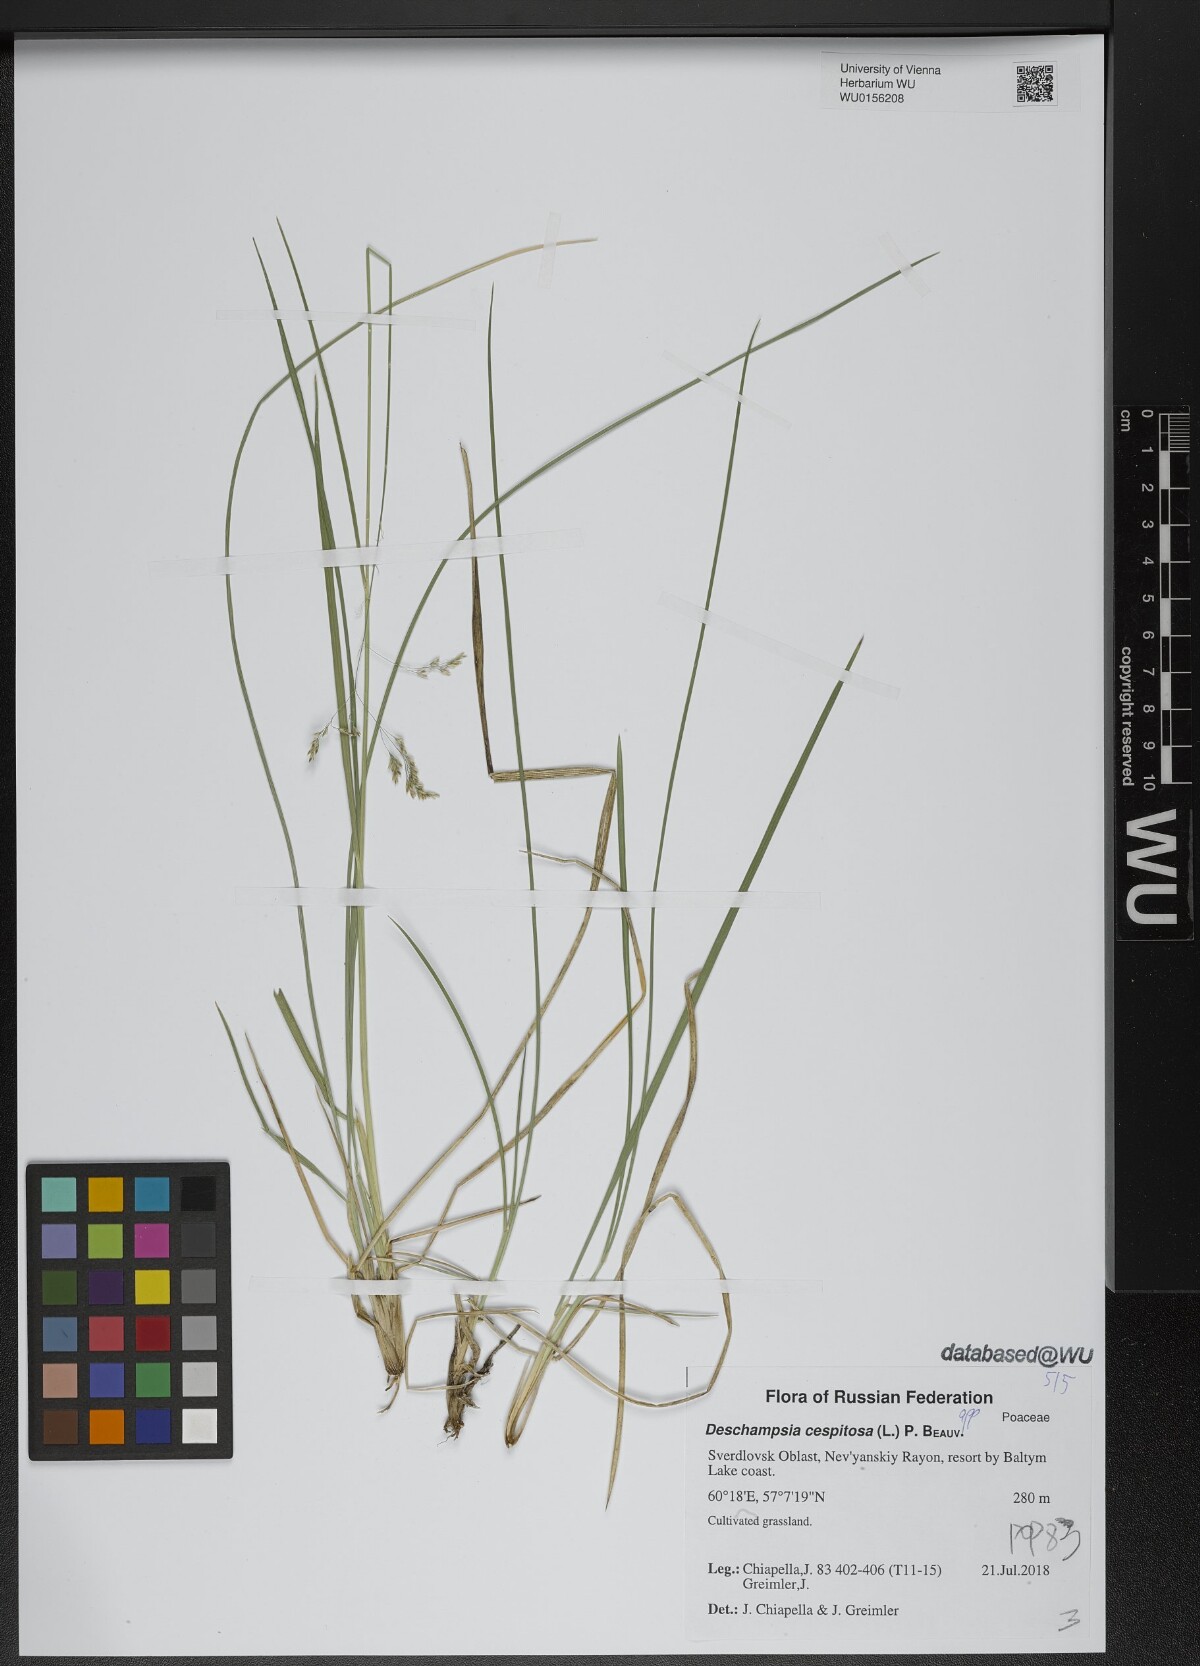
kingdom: Plantae
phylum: Tracheophyta
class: Liliopsida
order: Poales
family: Poaceae
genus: Deschampsia
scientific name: Deschampsia cespitosa
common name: Tufted hair-grass
